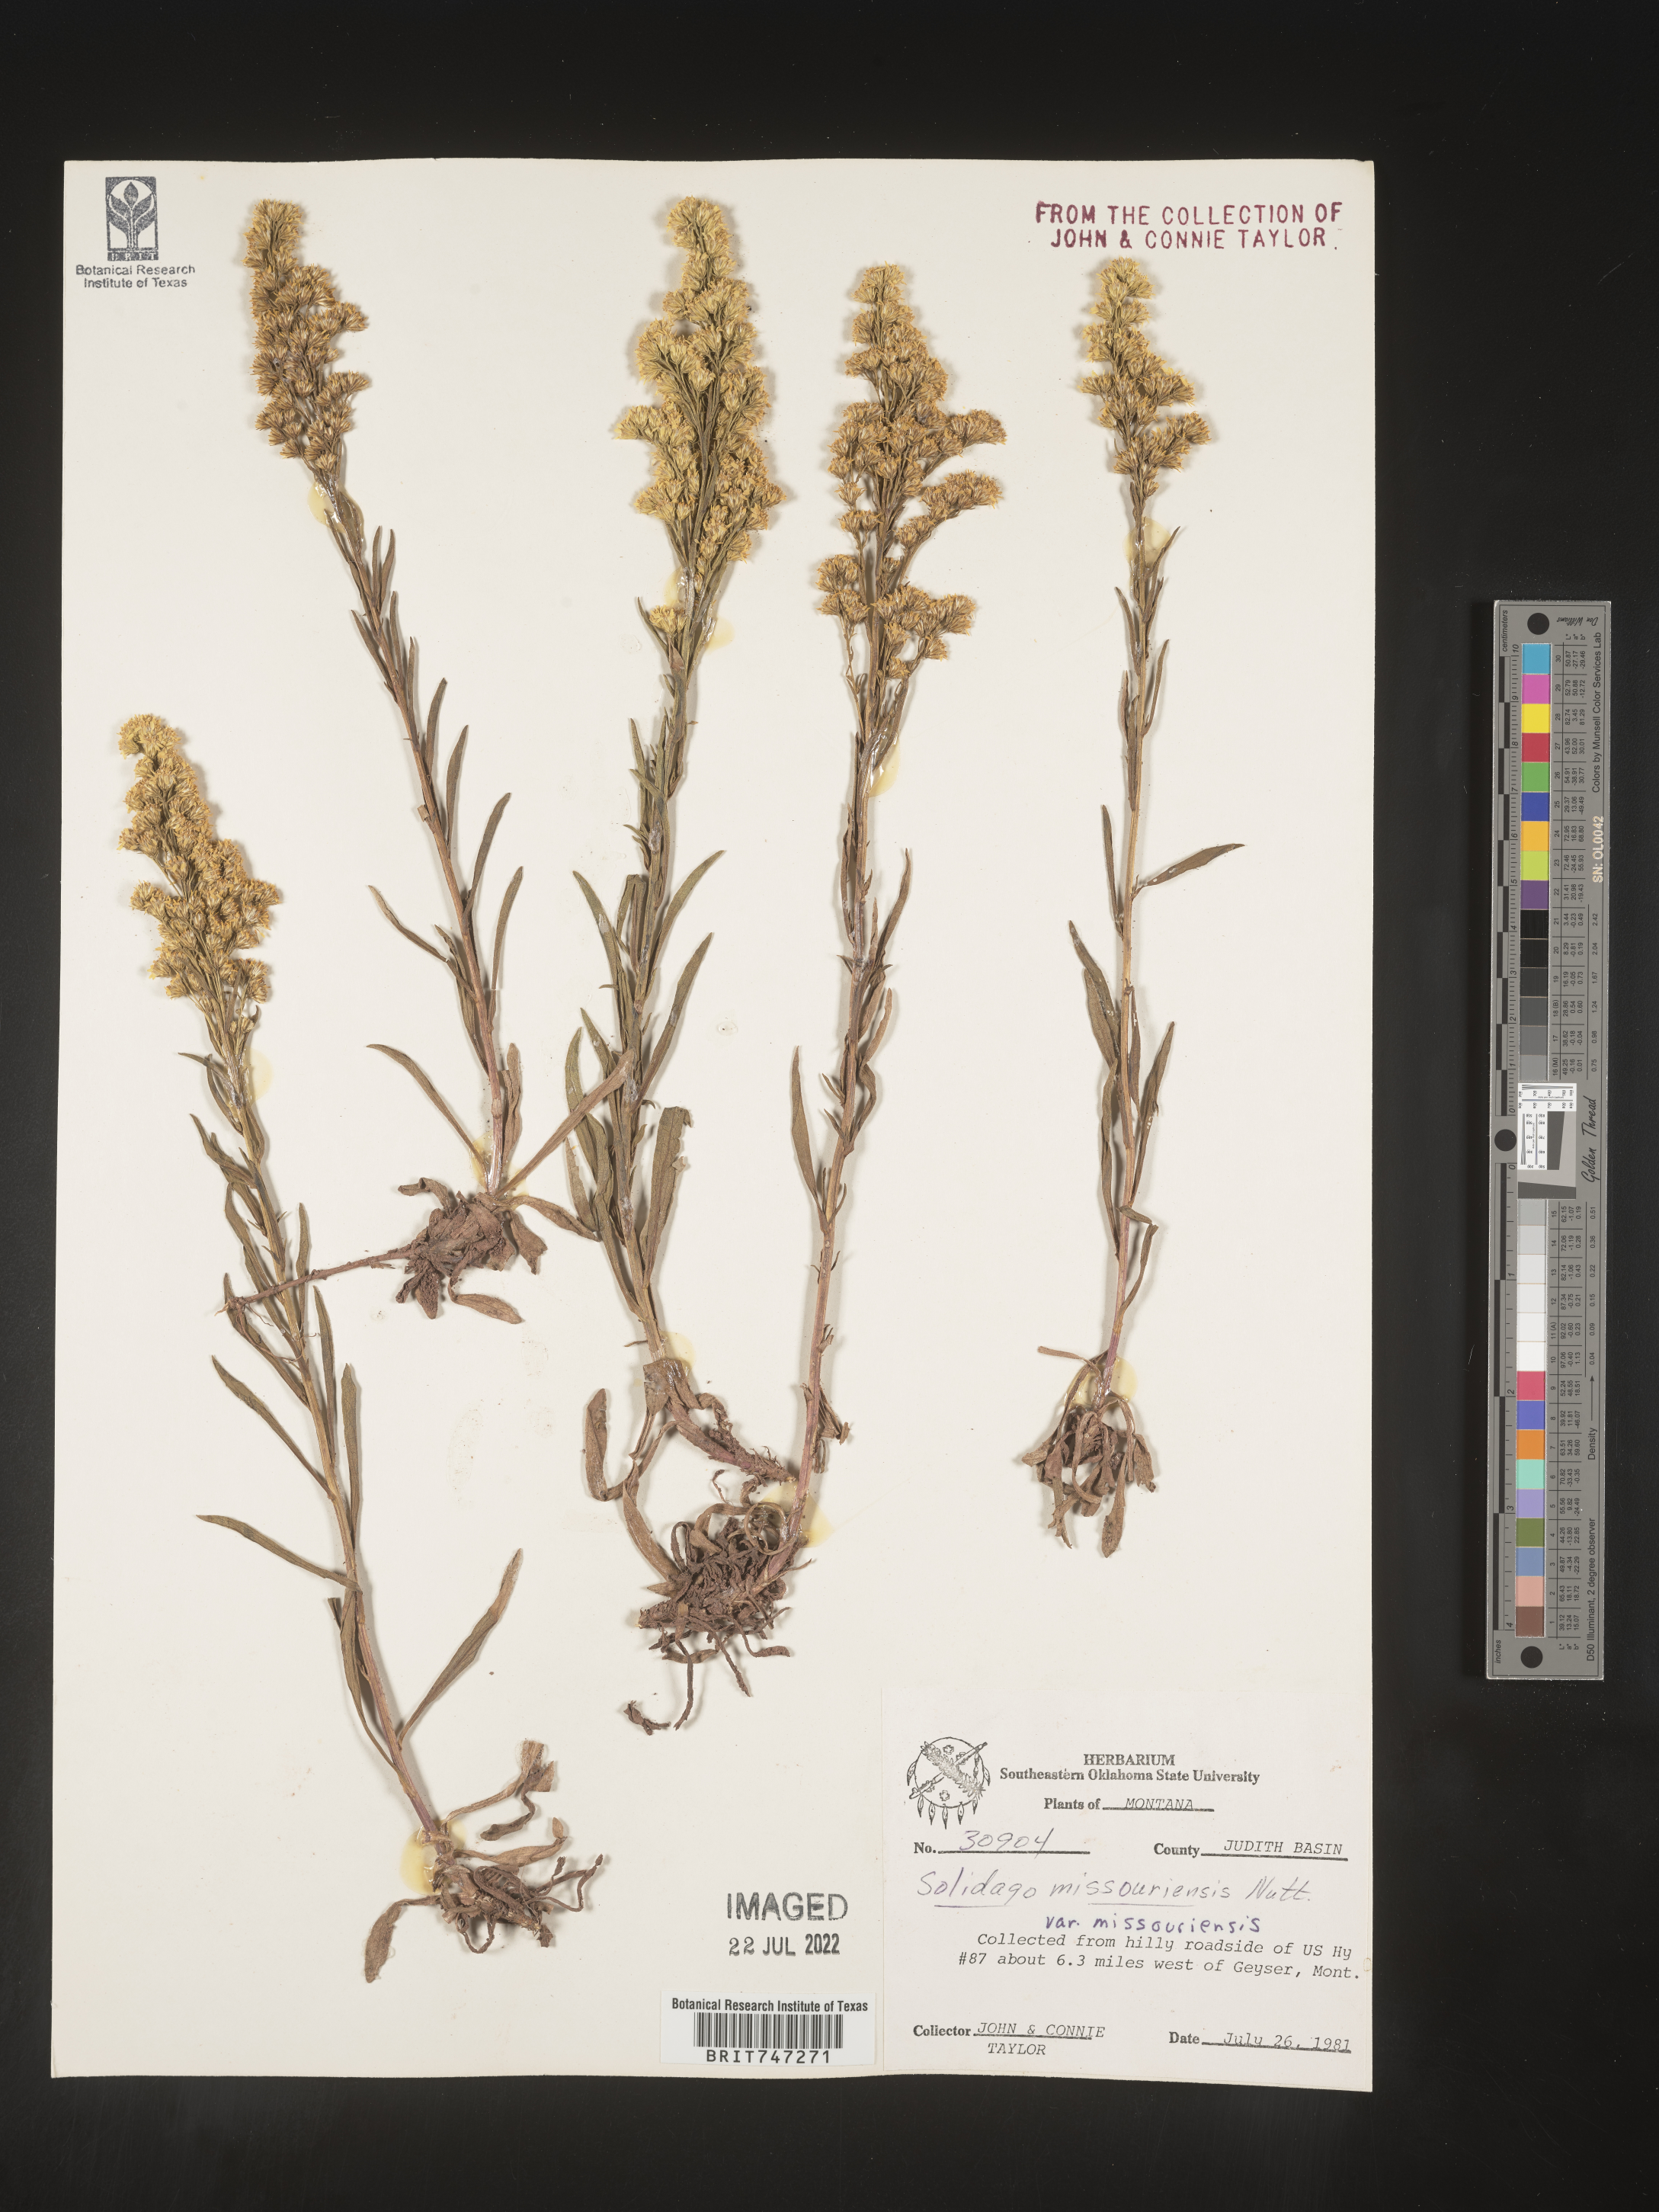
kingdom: Plantae
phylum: Tracheophyta
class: Magnoliopsida
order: Asterales
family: Asteraceae
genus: Solidago
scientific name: Solidago missouriensis
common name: Prairie goldenrod
